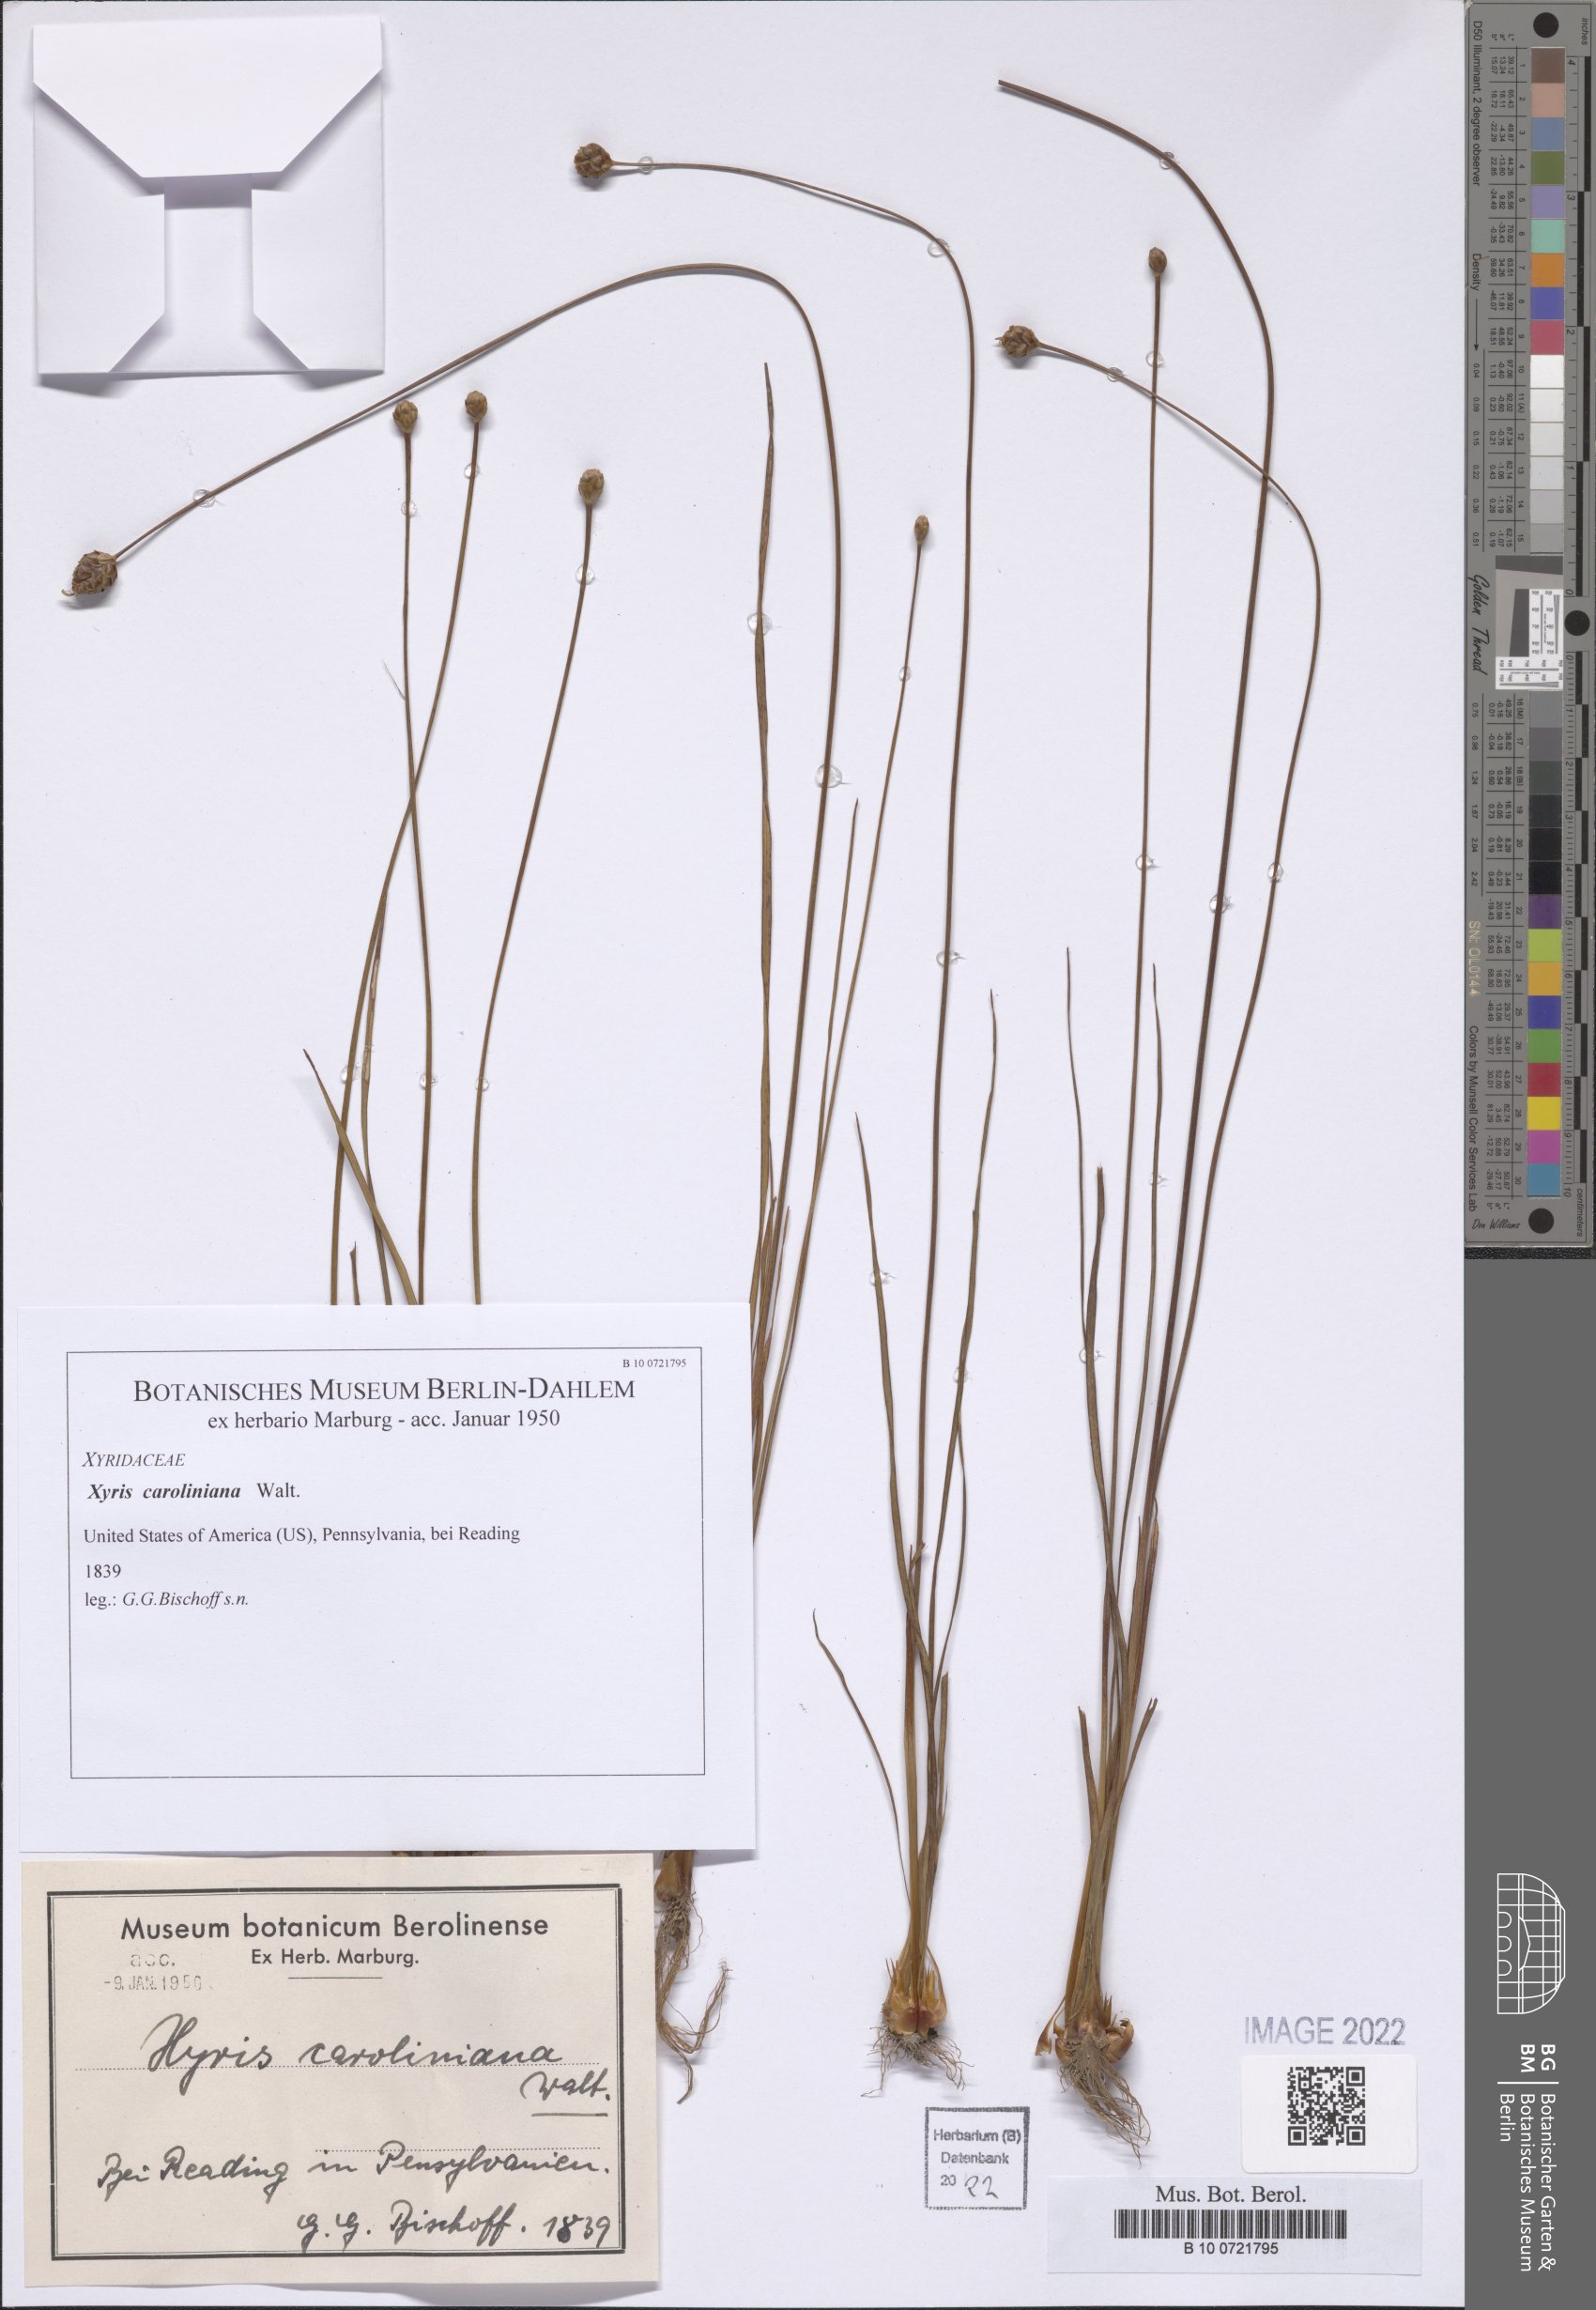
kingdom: Plantae
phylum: Tracheophyta
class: Liliopsida
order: Poales
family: Xyridaceae
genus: Xyris
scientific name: Xyris caroliniana
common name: Carolina yellow-eyed-grass
